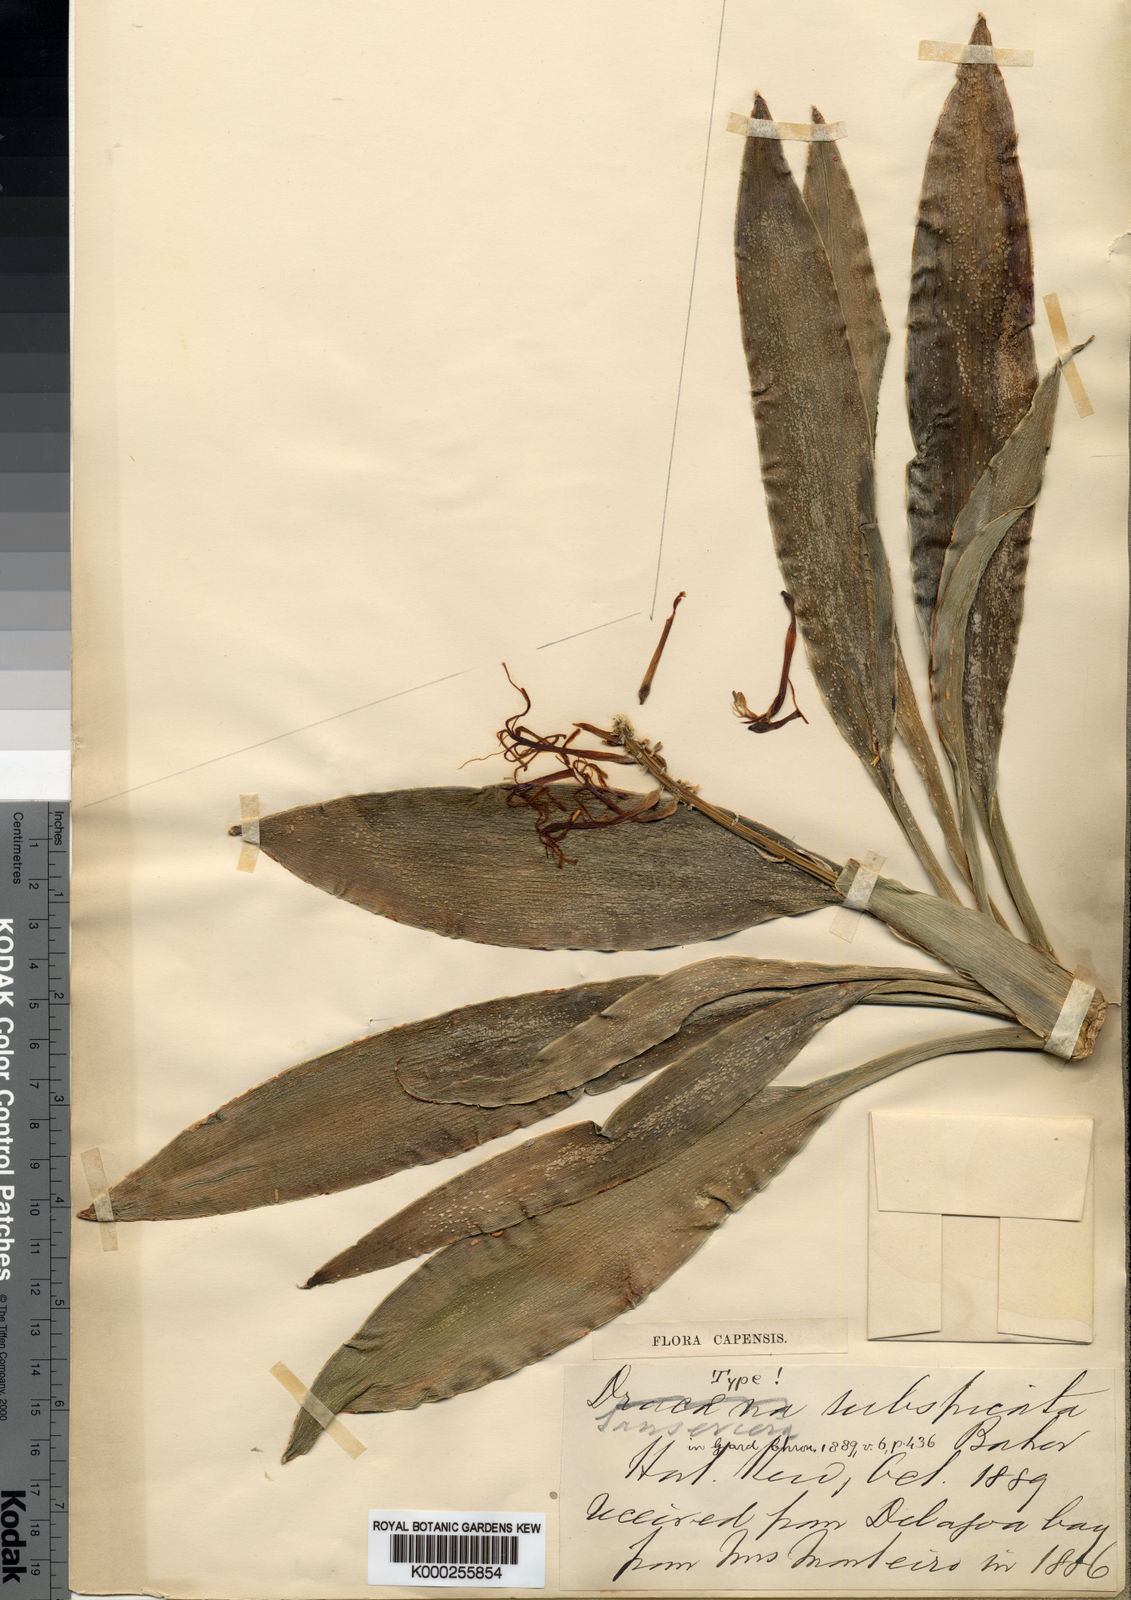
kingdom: Plantae
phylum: Tracheophyta
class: Liliopsida
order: Asparagales
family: Asparagaceae
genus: Dracaena
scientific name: Dracaena subspicata
